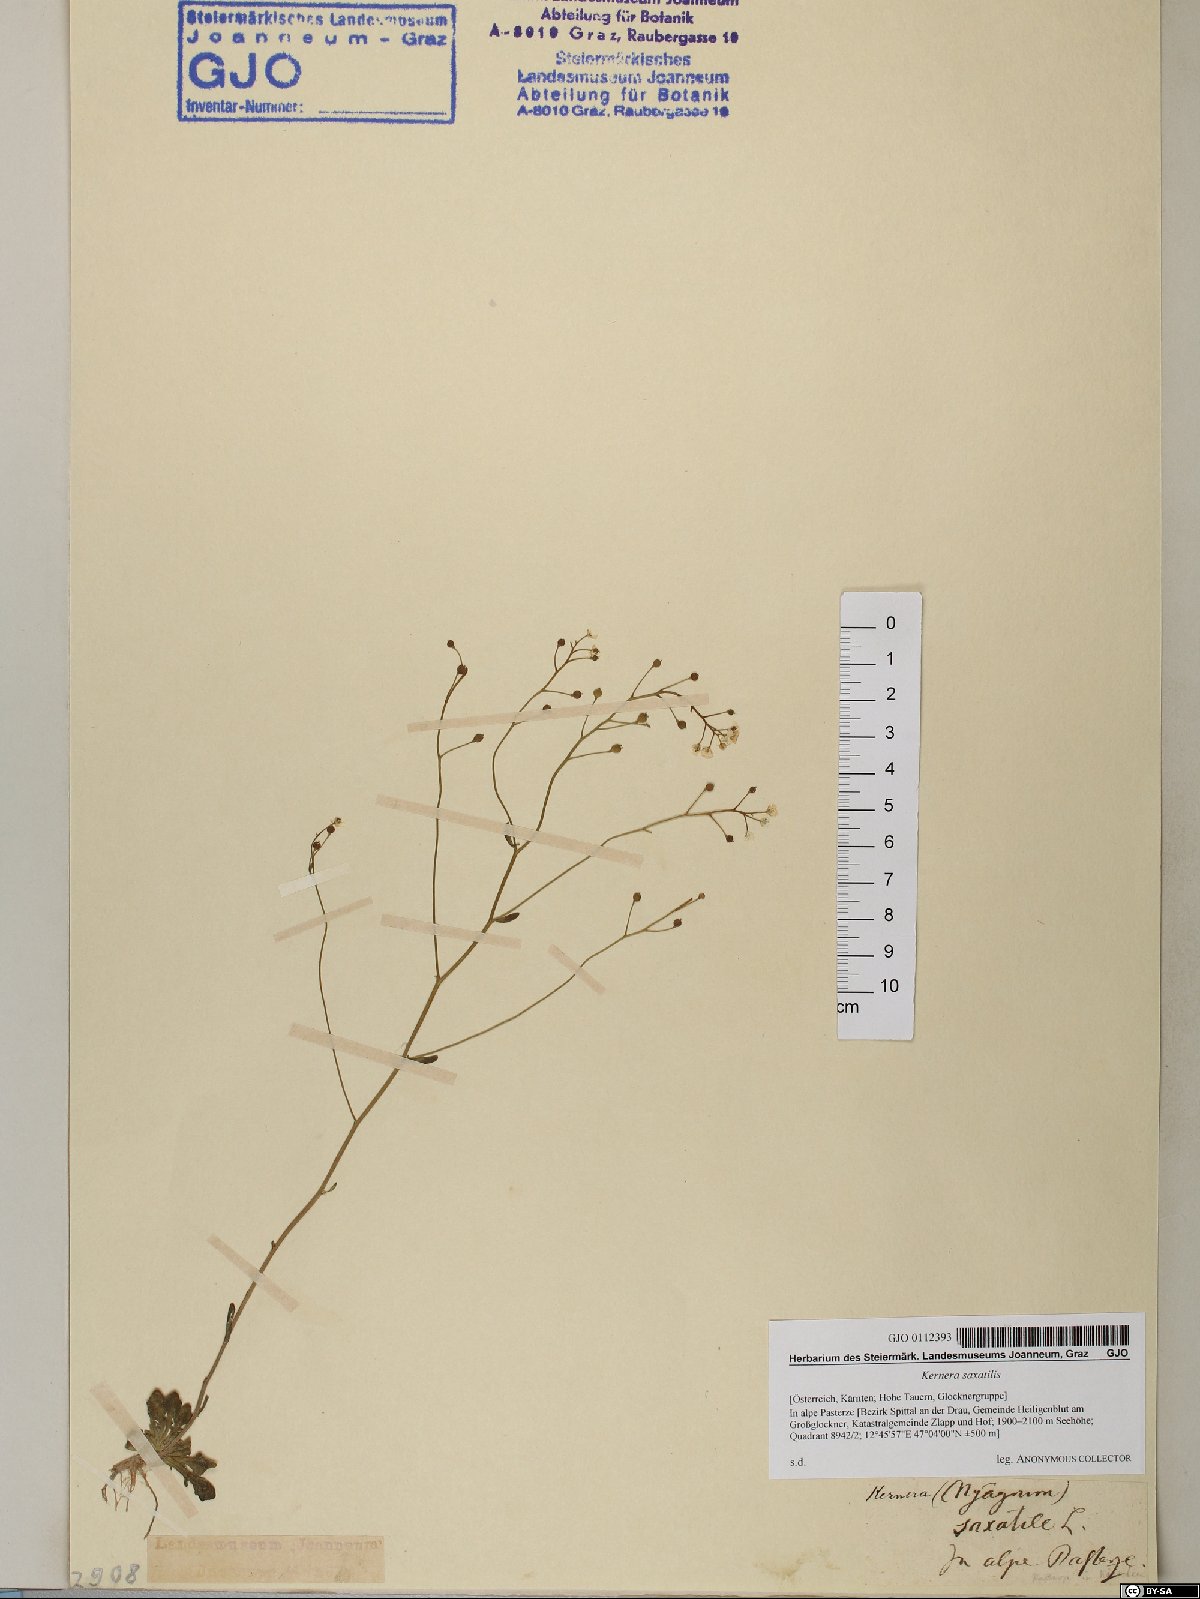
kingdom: Plantae
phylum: Tracheophyta
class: Magnoliopsida
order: Brassicales
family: Brassicaceae
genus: Kernera
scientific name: Kernera saxatilis
